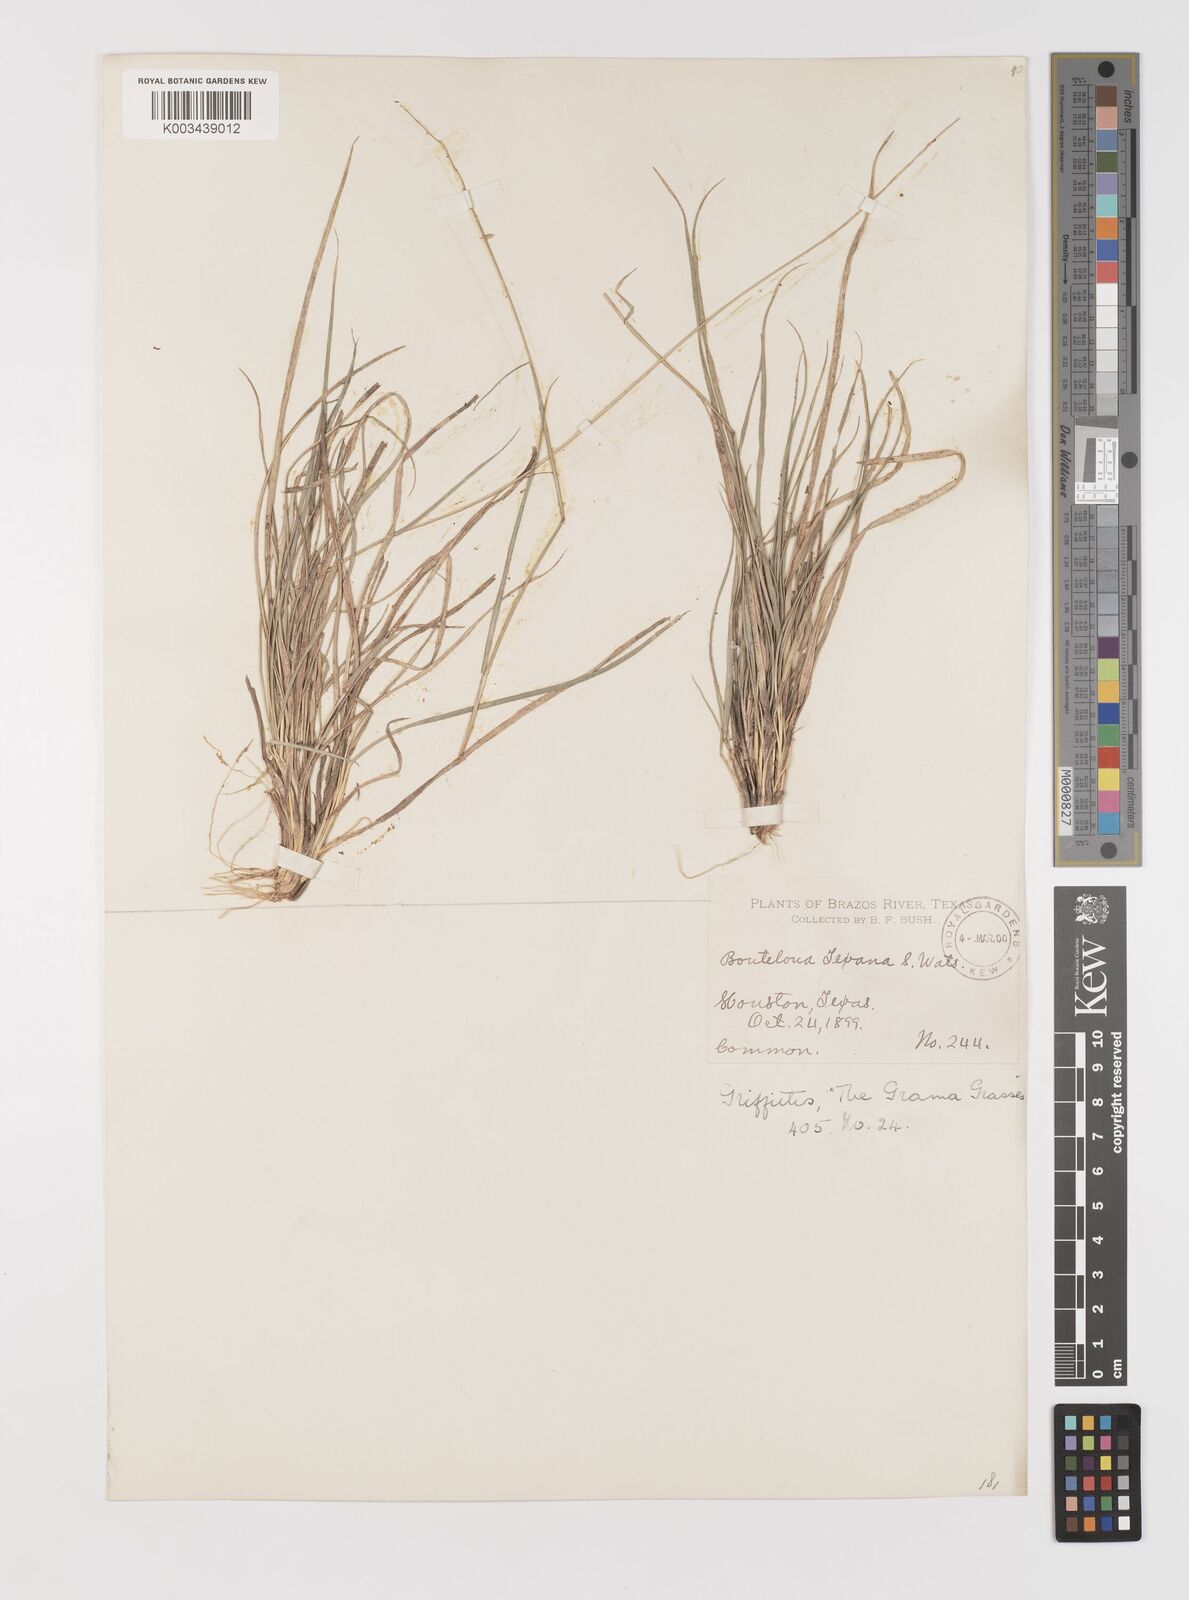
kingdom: Plantae
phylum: Tracheophyta
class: Liliopsida
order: Poales
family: Poaceae
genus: Bouteloua
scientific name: Bouteloua rigidiseta
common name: Texas grama
